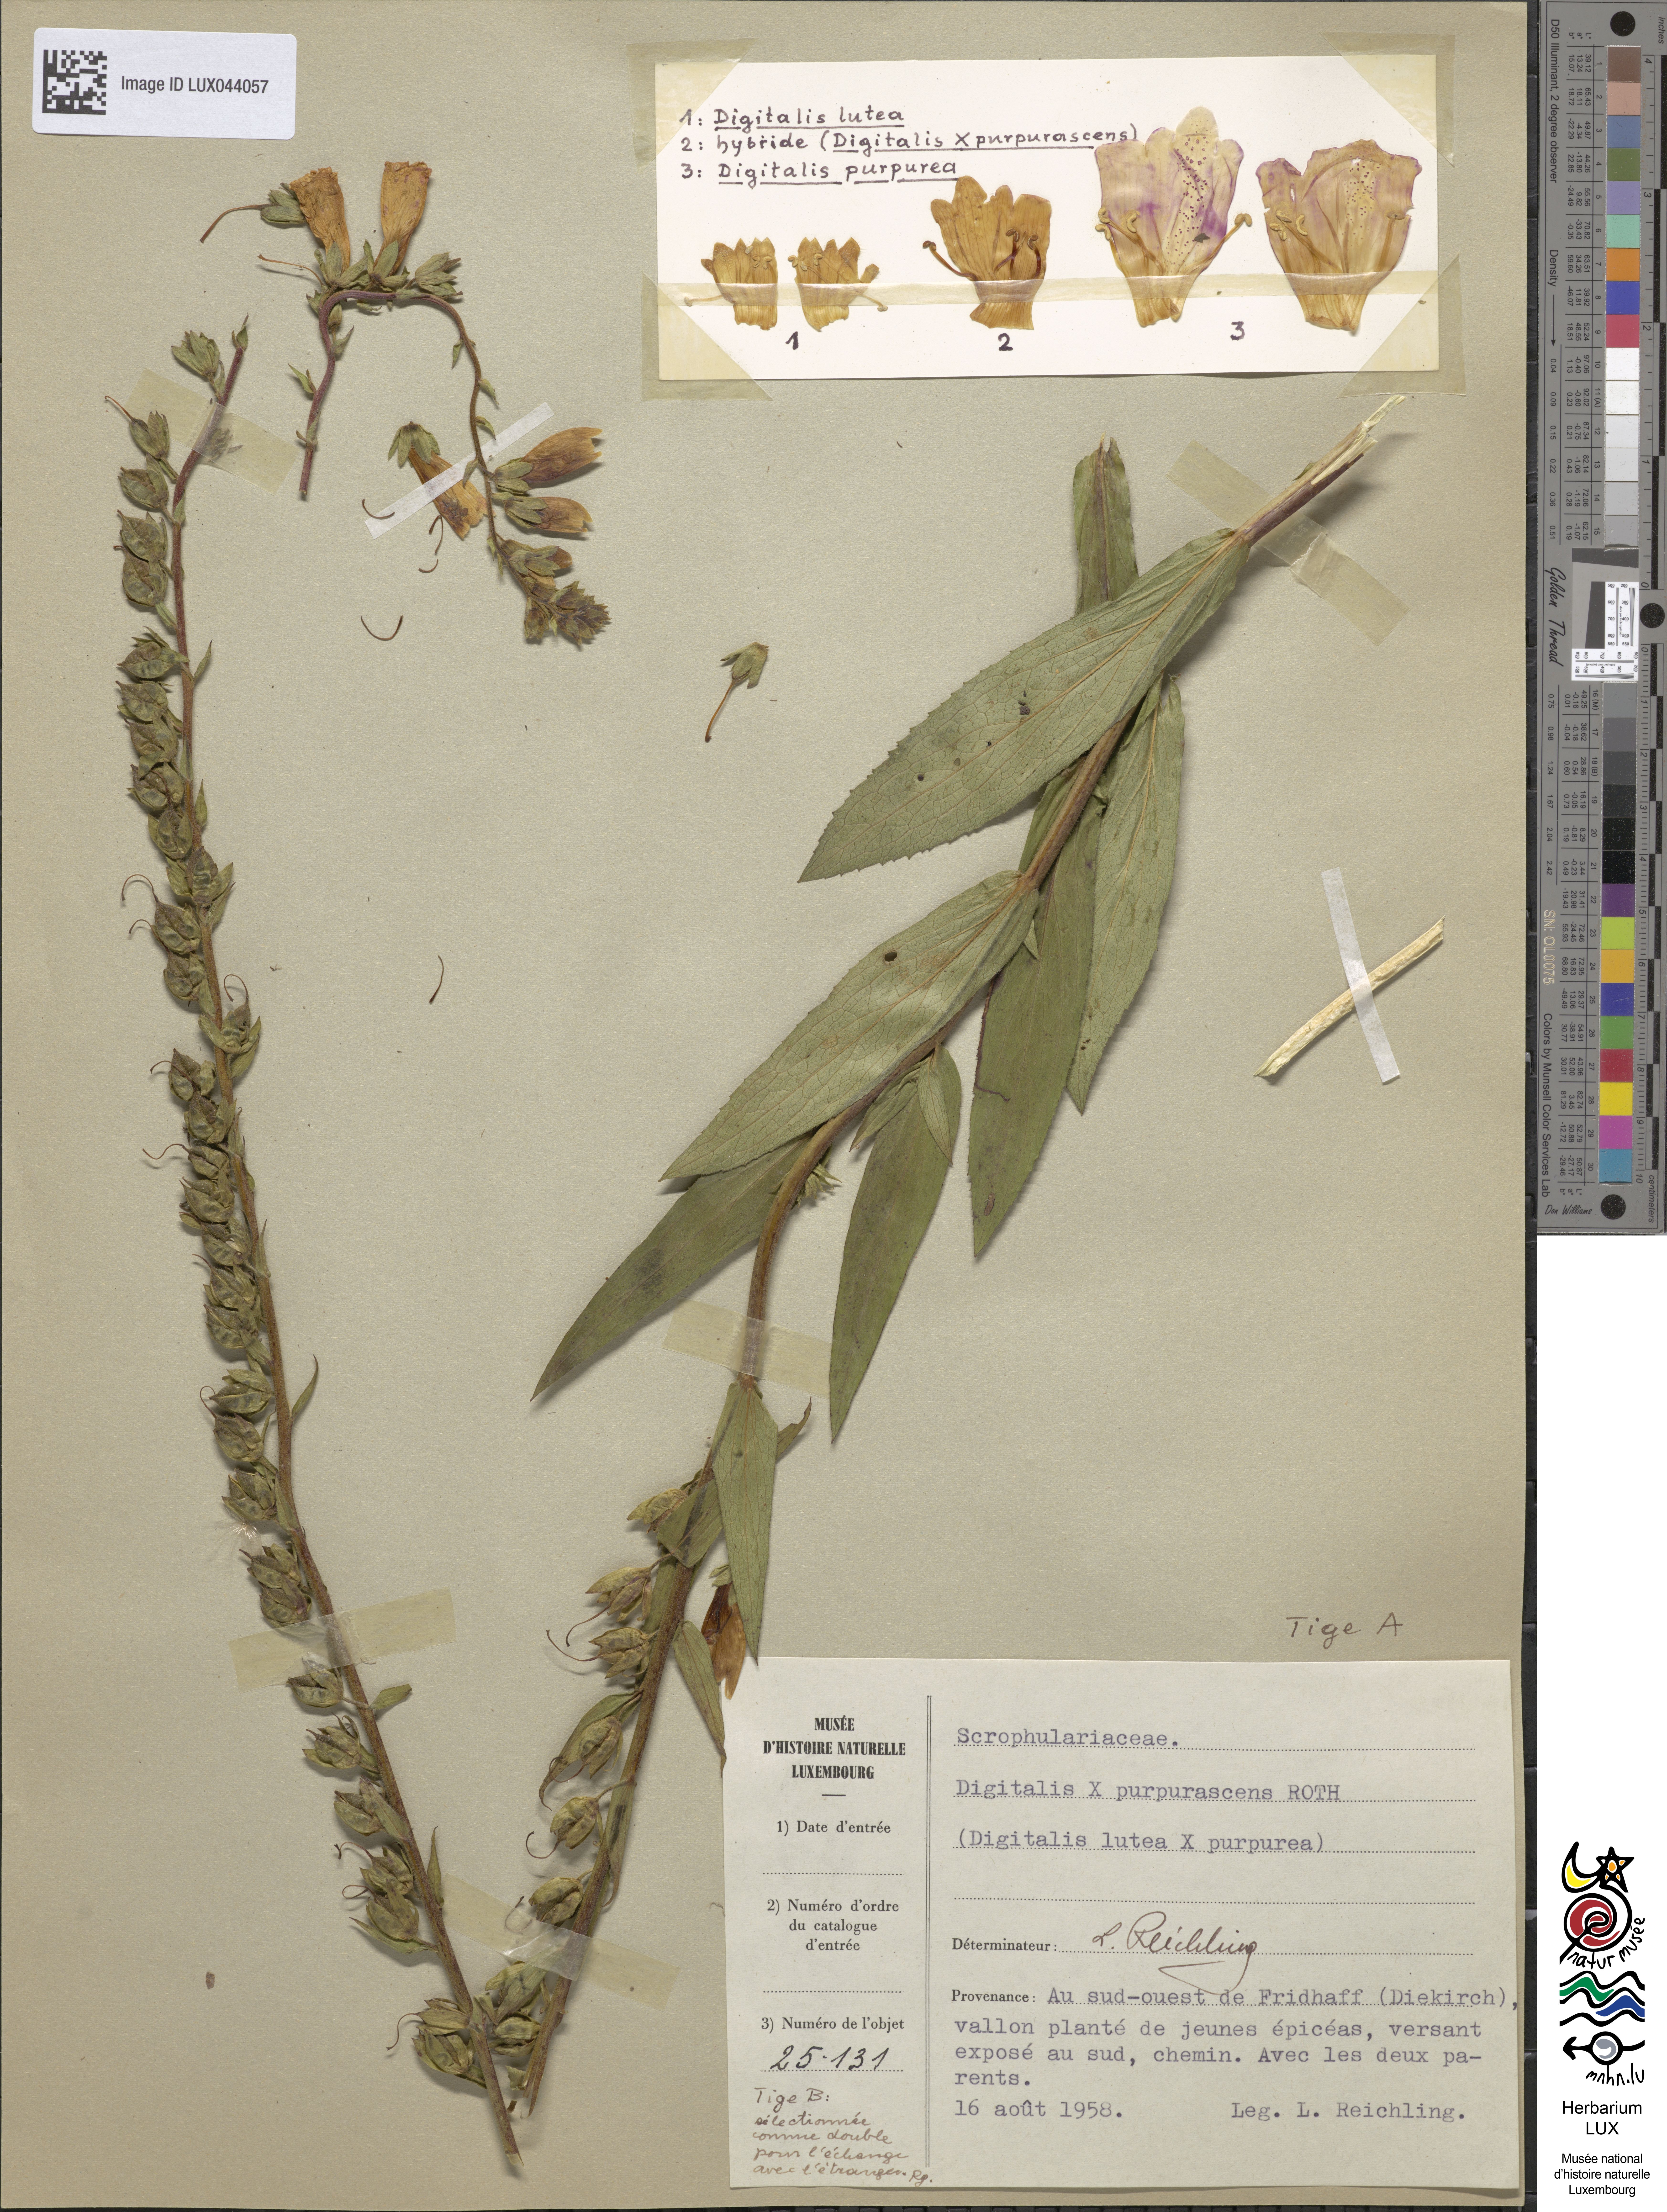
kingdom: Plantae
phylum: Tracheophyta
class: Magnoliopsida
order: Lamiales
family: Plantaginaceae
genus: Digitalis
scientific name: Digitalis fucata
